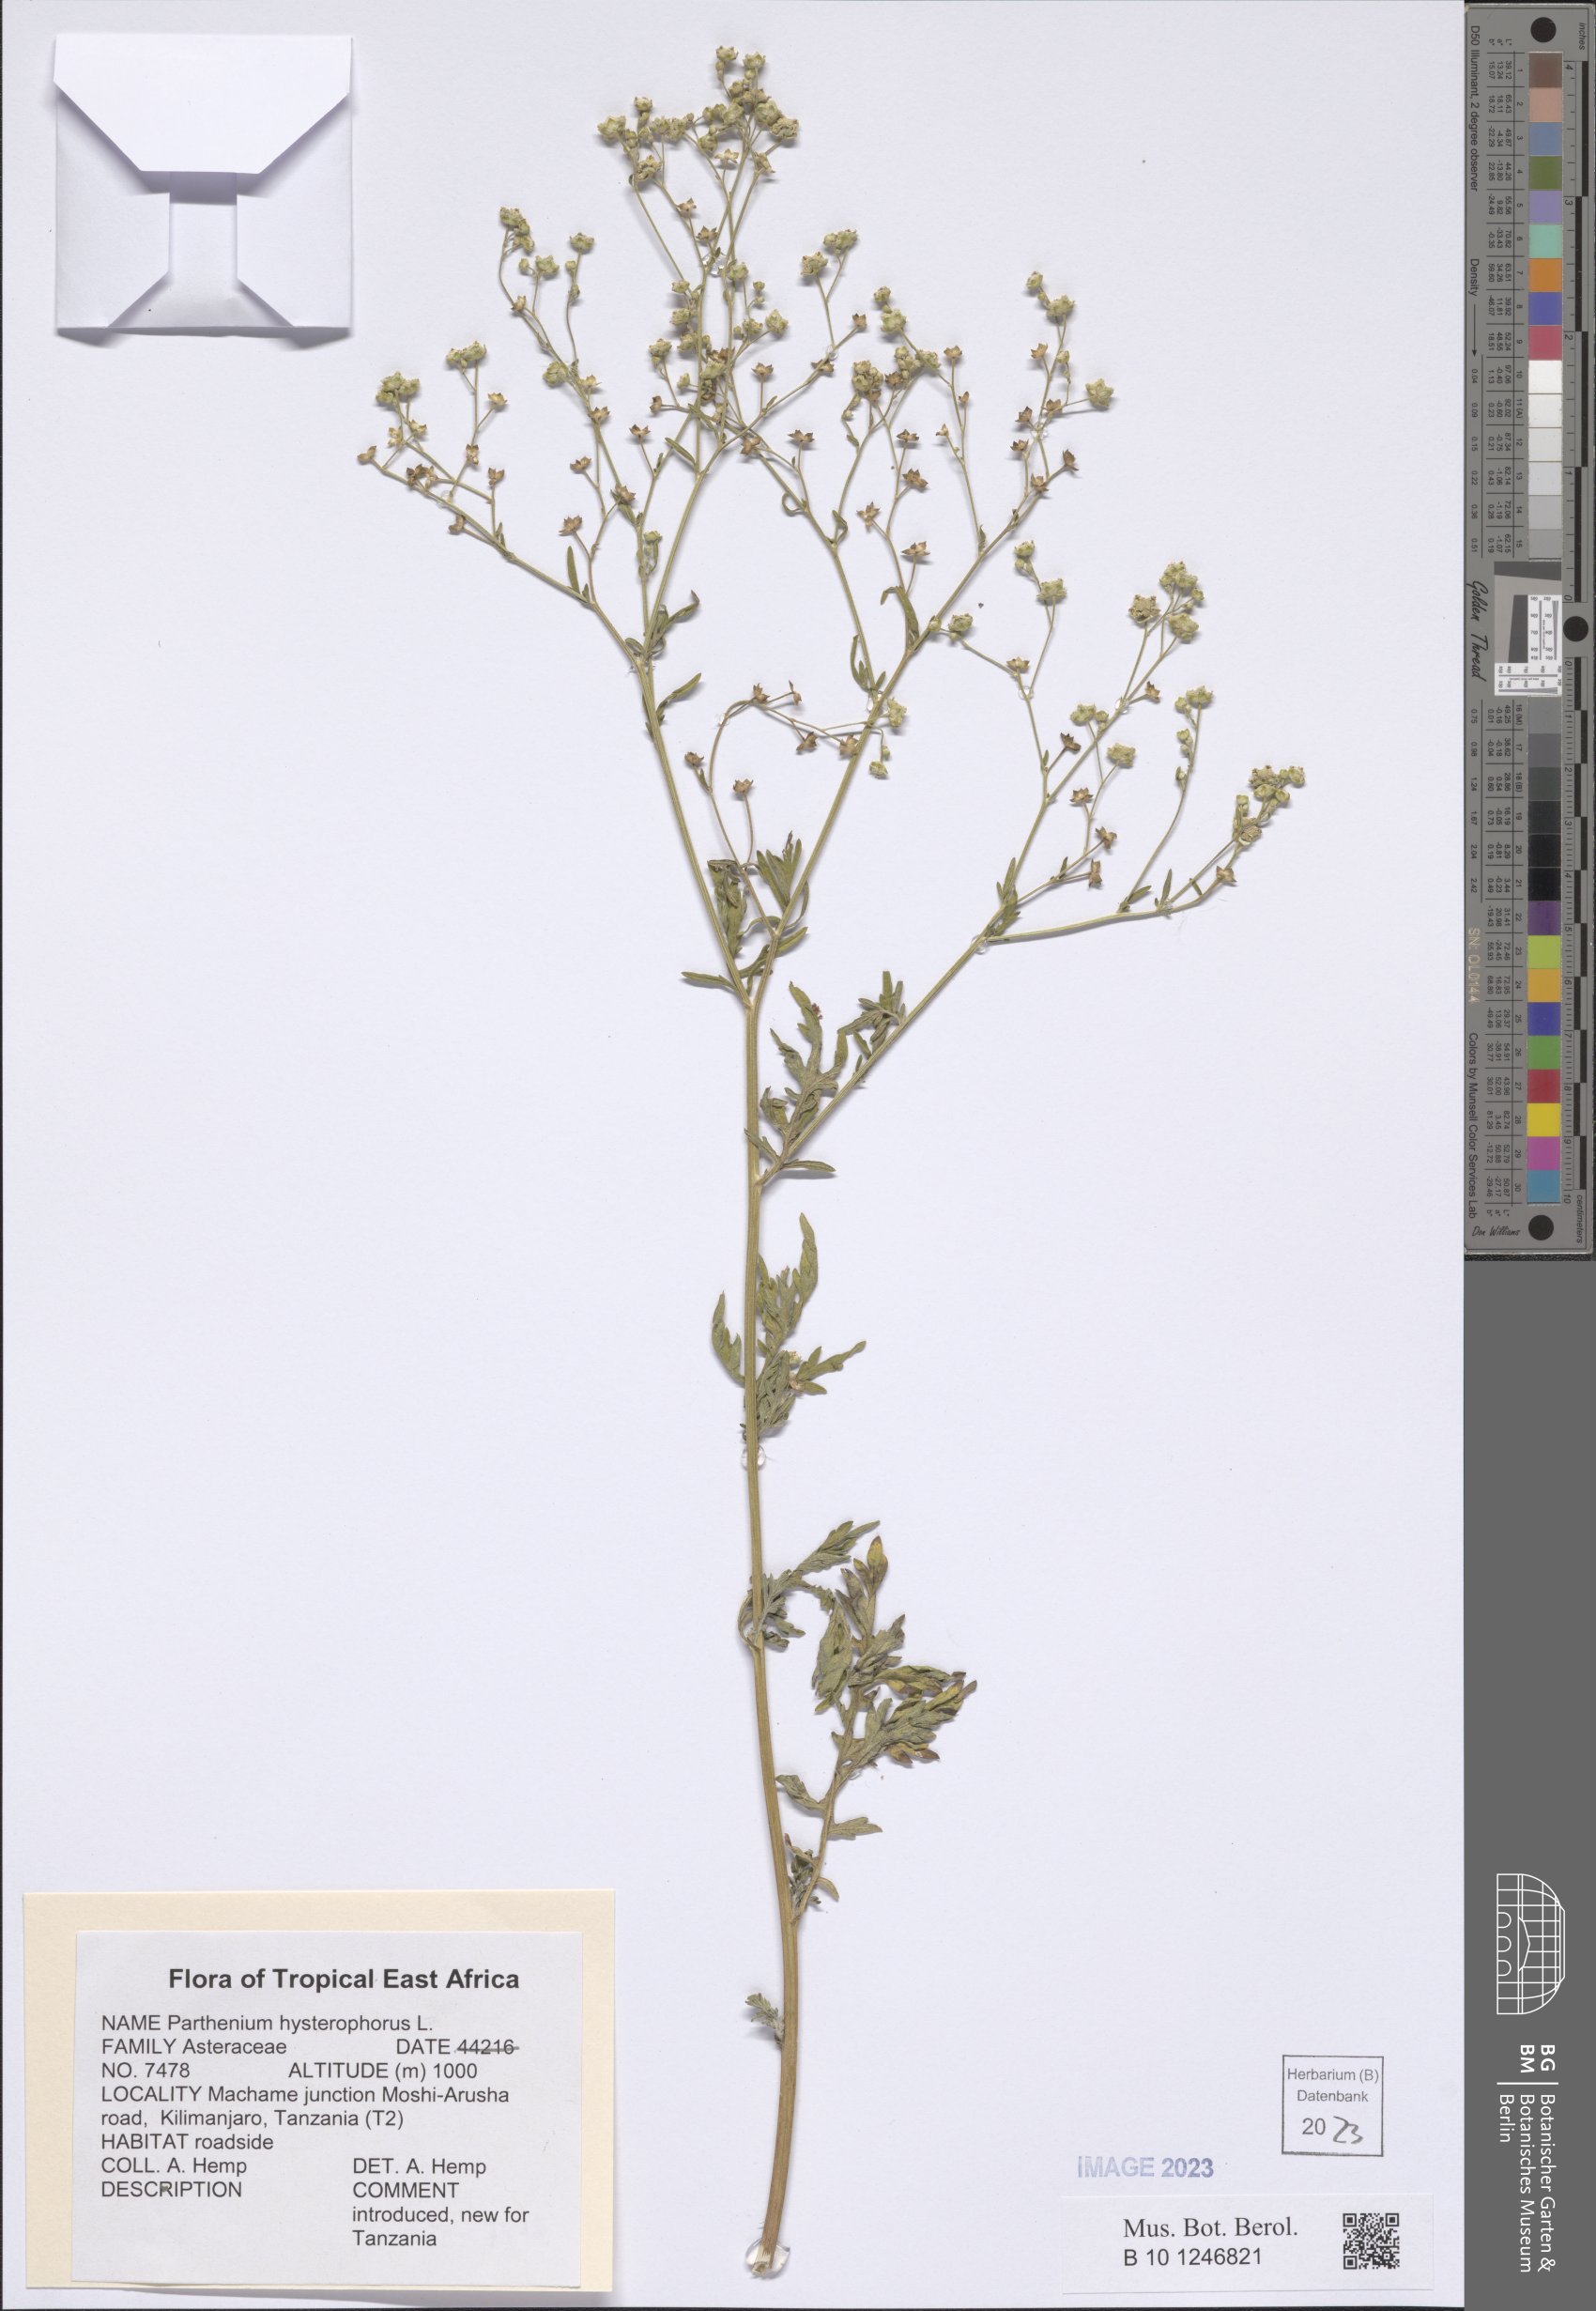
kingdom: Plantae
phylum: Tracheophyta
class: Magnoliopsida
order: Asterales
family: Asteraceae
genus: Parthenium
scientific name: Parthenium hysterophorus
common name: Santa maria feverfew
